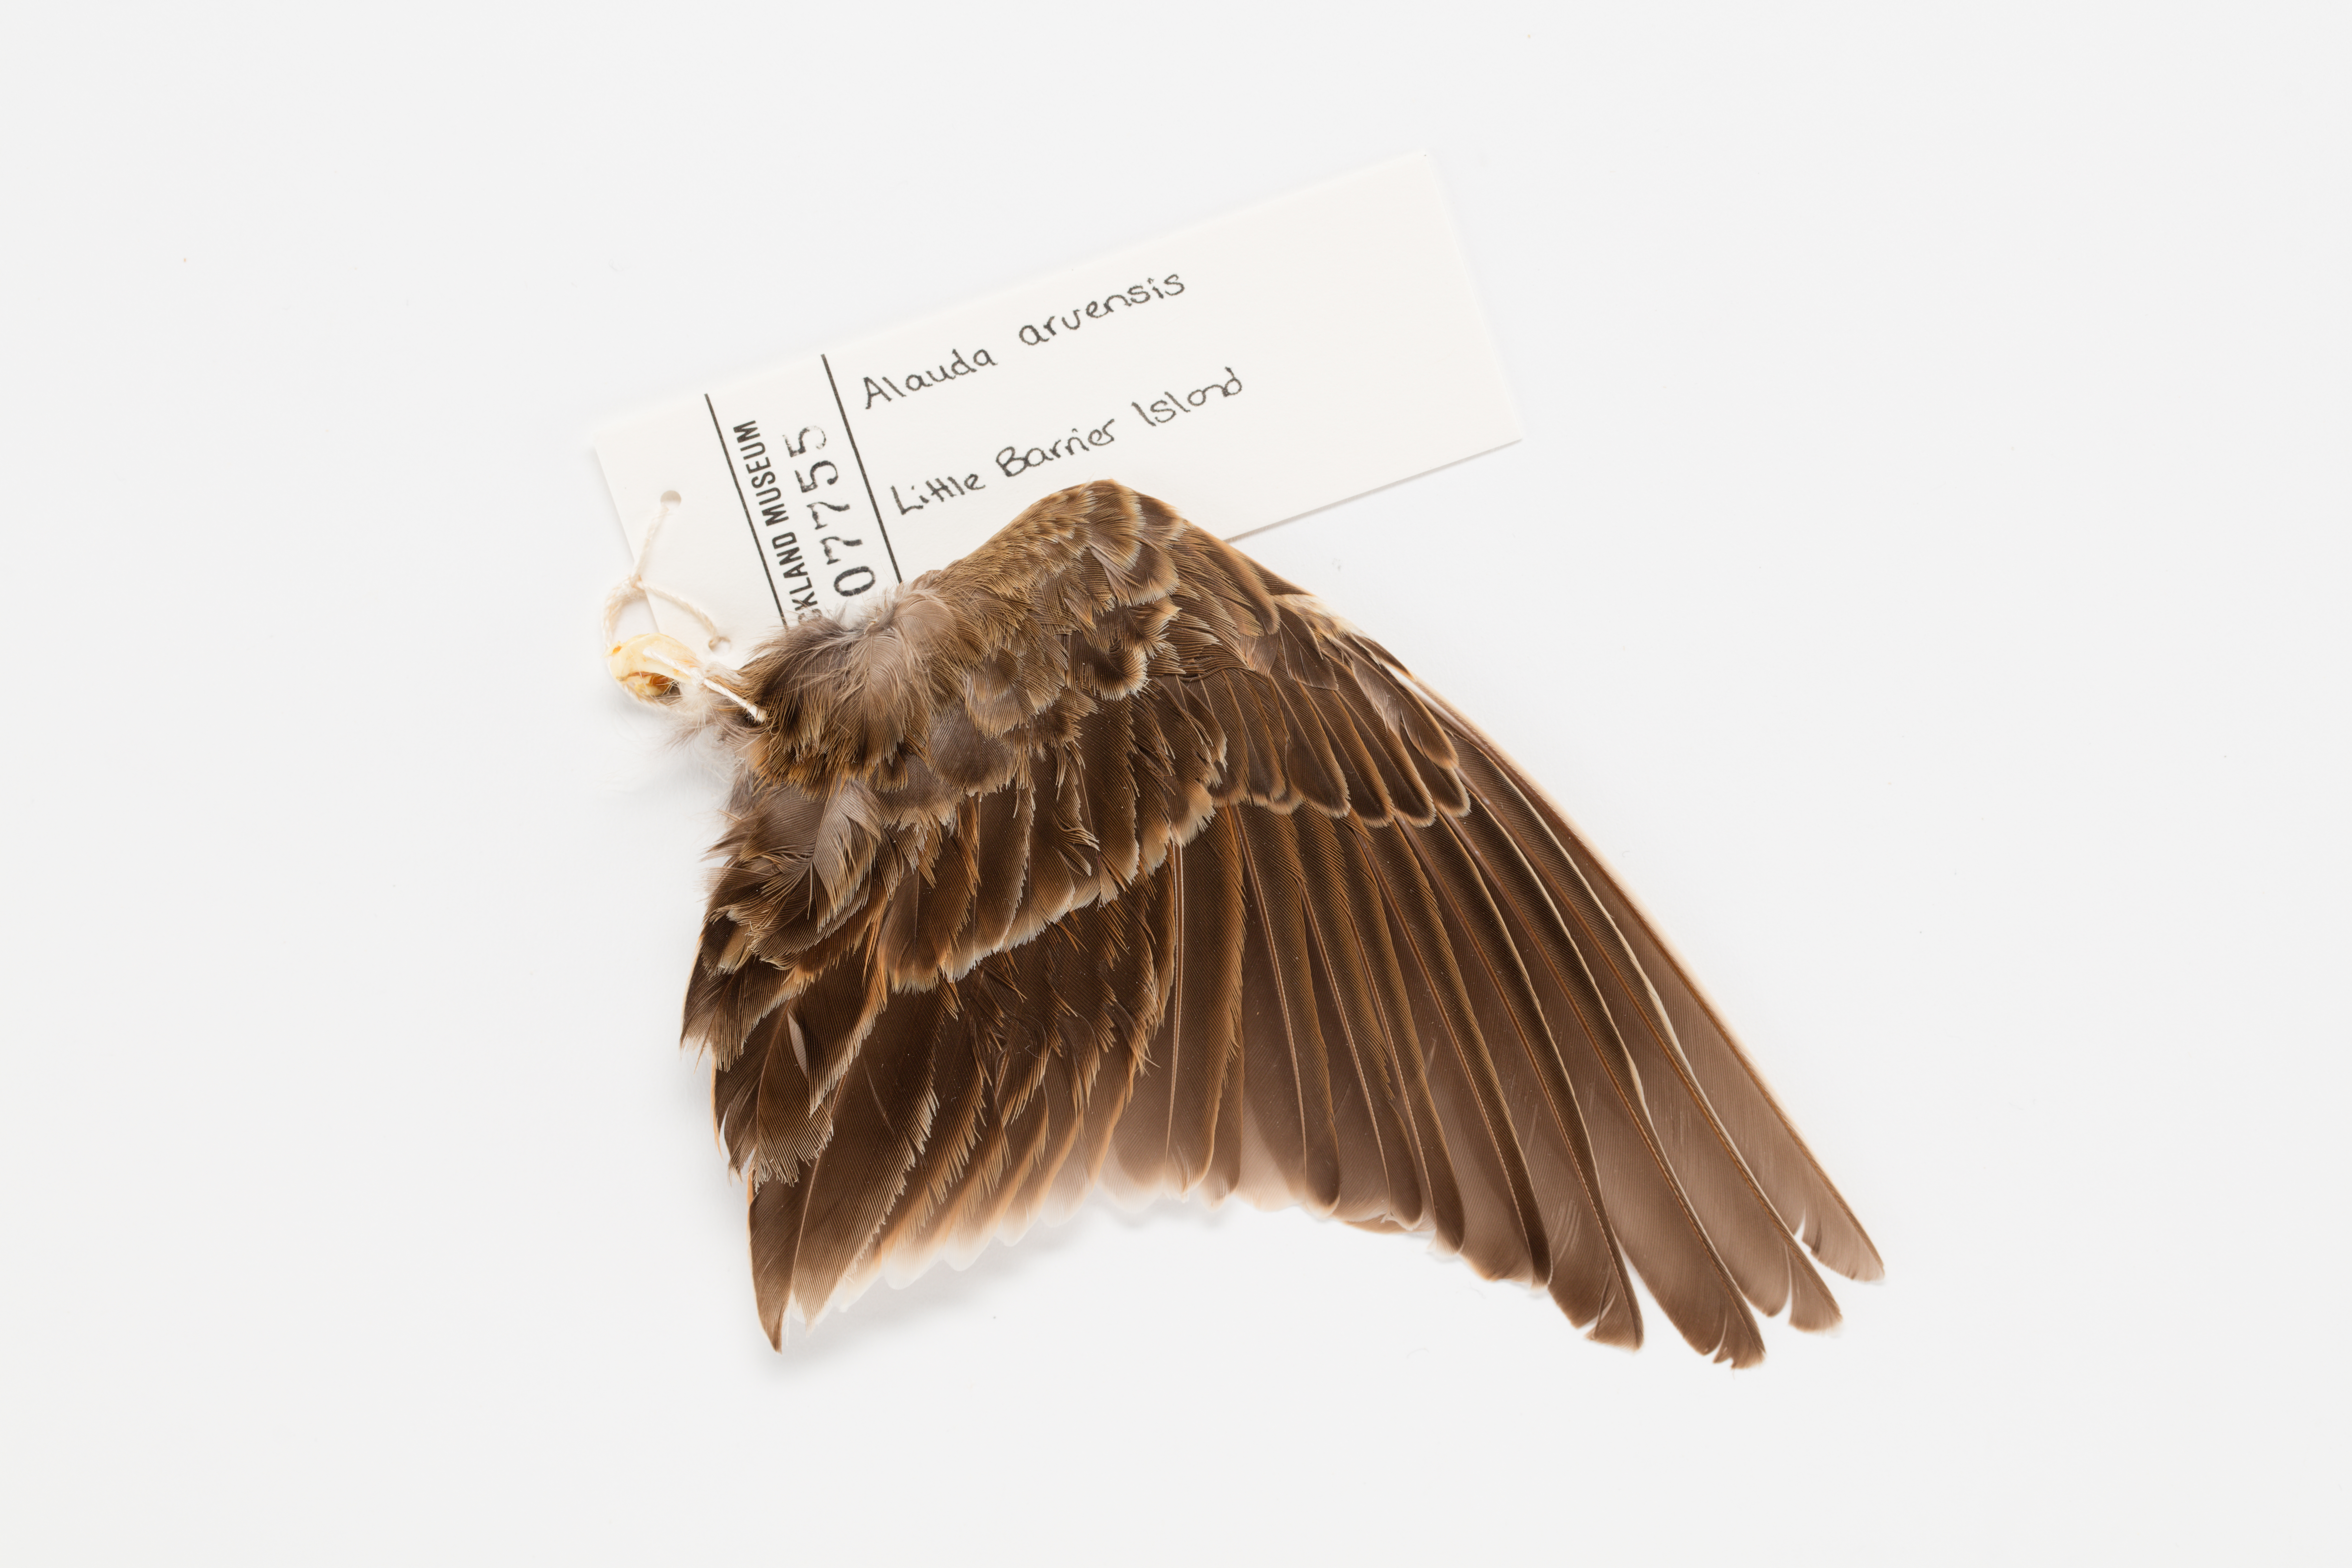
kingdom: Animalia
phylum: Chordata
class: Aves
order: Passeriformes
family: Alaudidae
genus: Alauda
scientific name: Alauda arvensis
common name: Eurasian skylark
